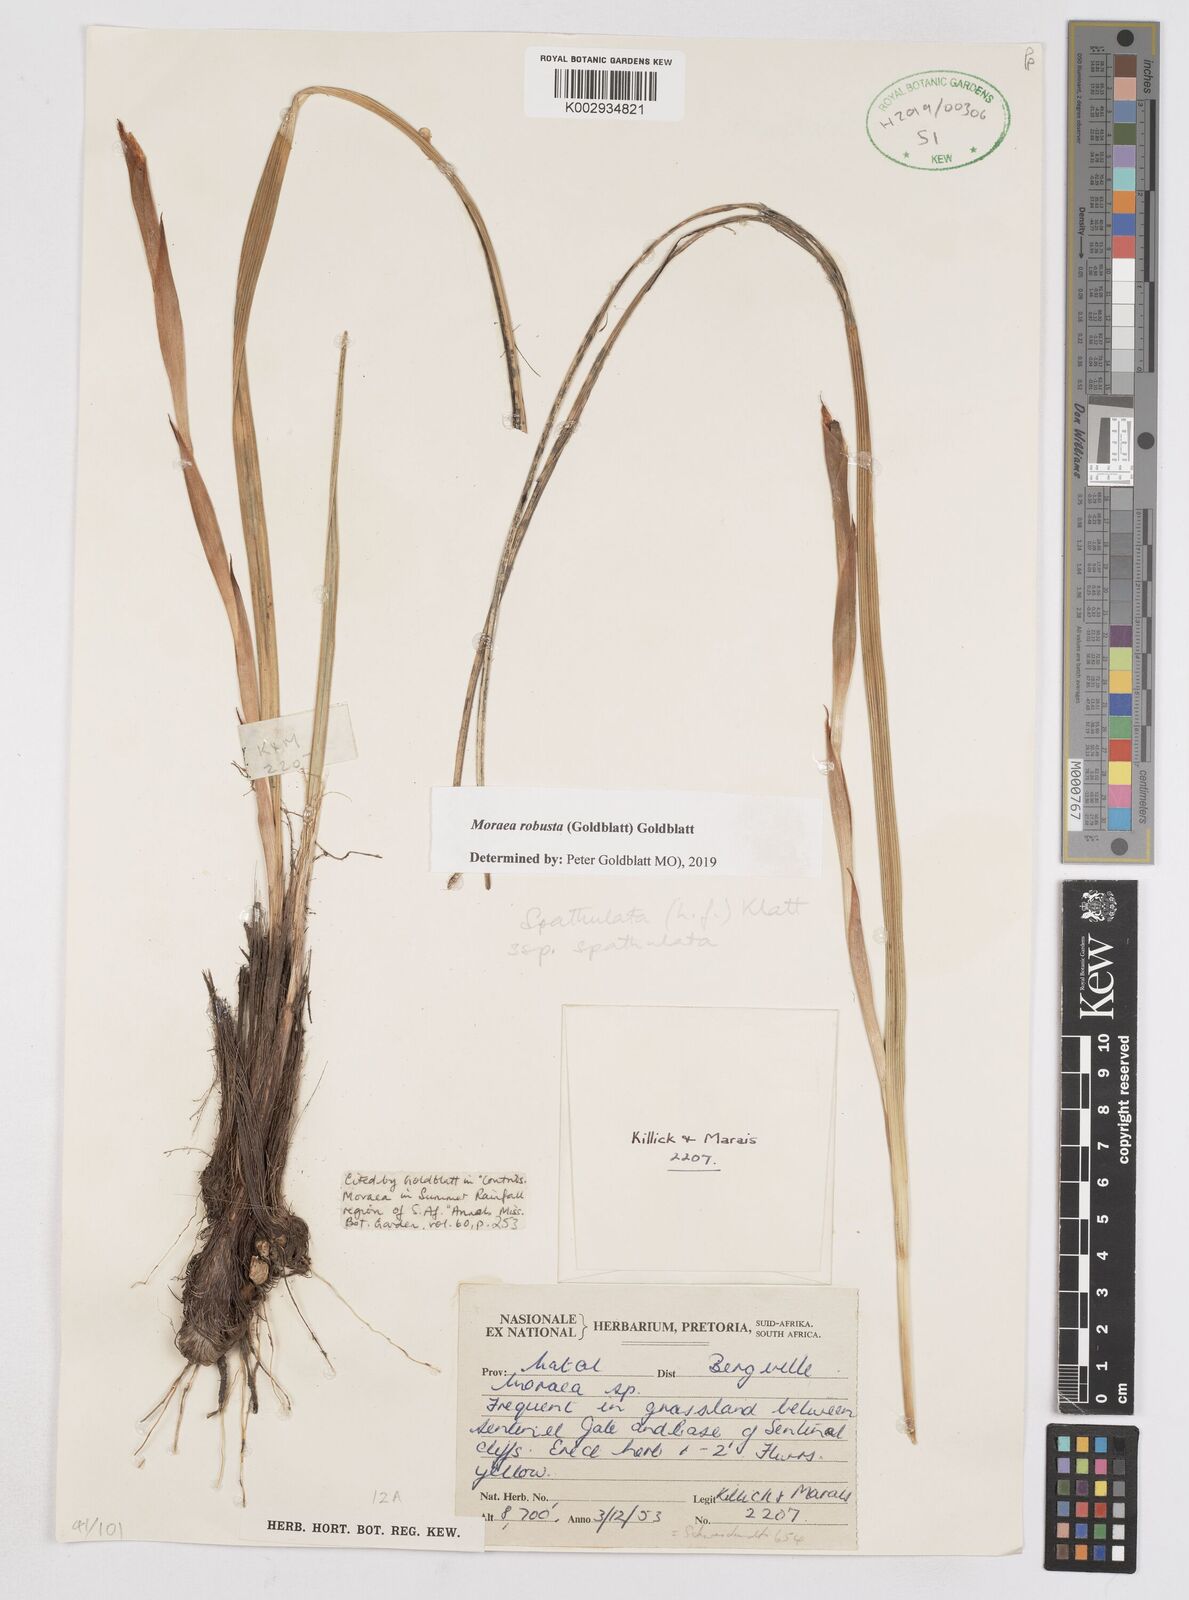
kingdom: Plantae
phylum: Tracheophyta
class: Liliopsida
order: Asparagales
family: Iridaceae
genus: Moraea
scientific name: Moraea robusta
